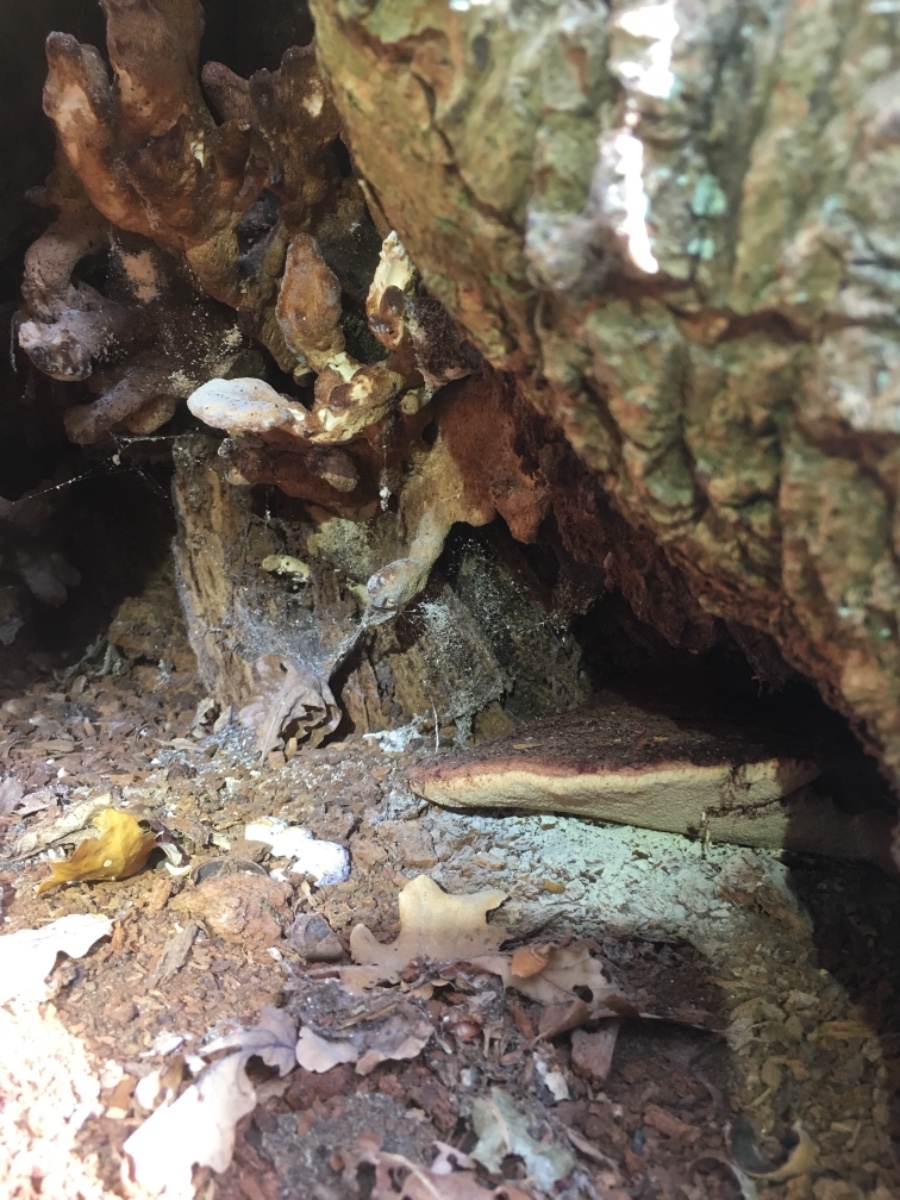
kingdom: Fungi
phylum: Basidiomycota
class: Agaricomycetes
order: Agaricales
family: Fistulinaceae
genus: Fistulina
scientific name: Fistulina hepatica
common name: oksetunge
